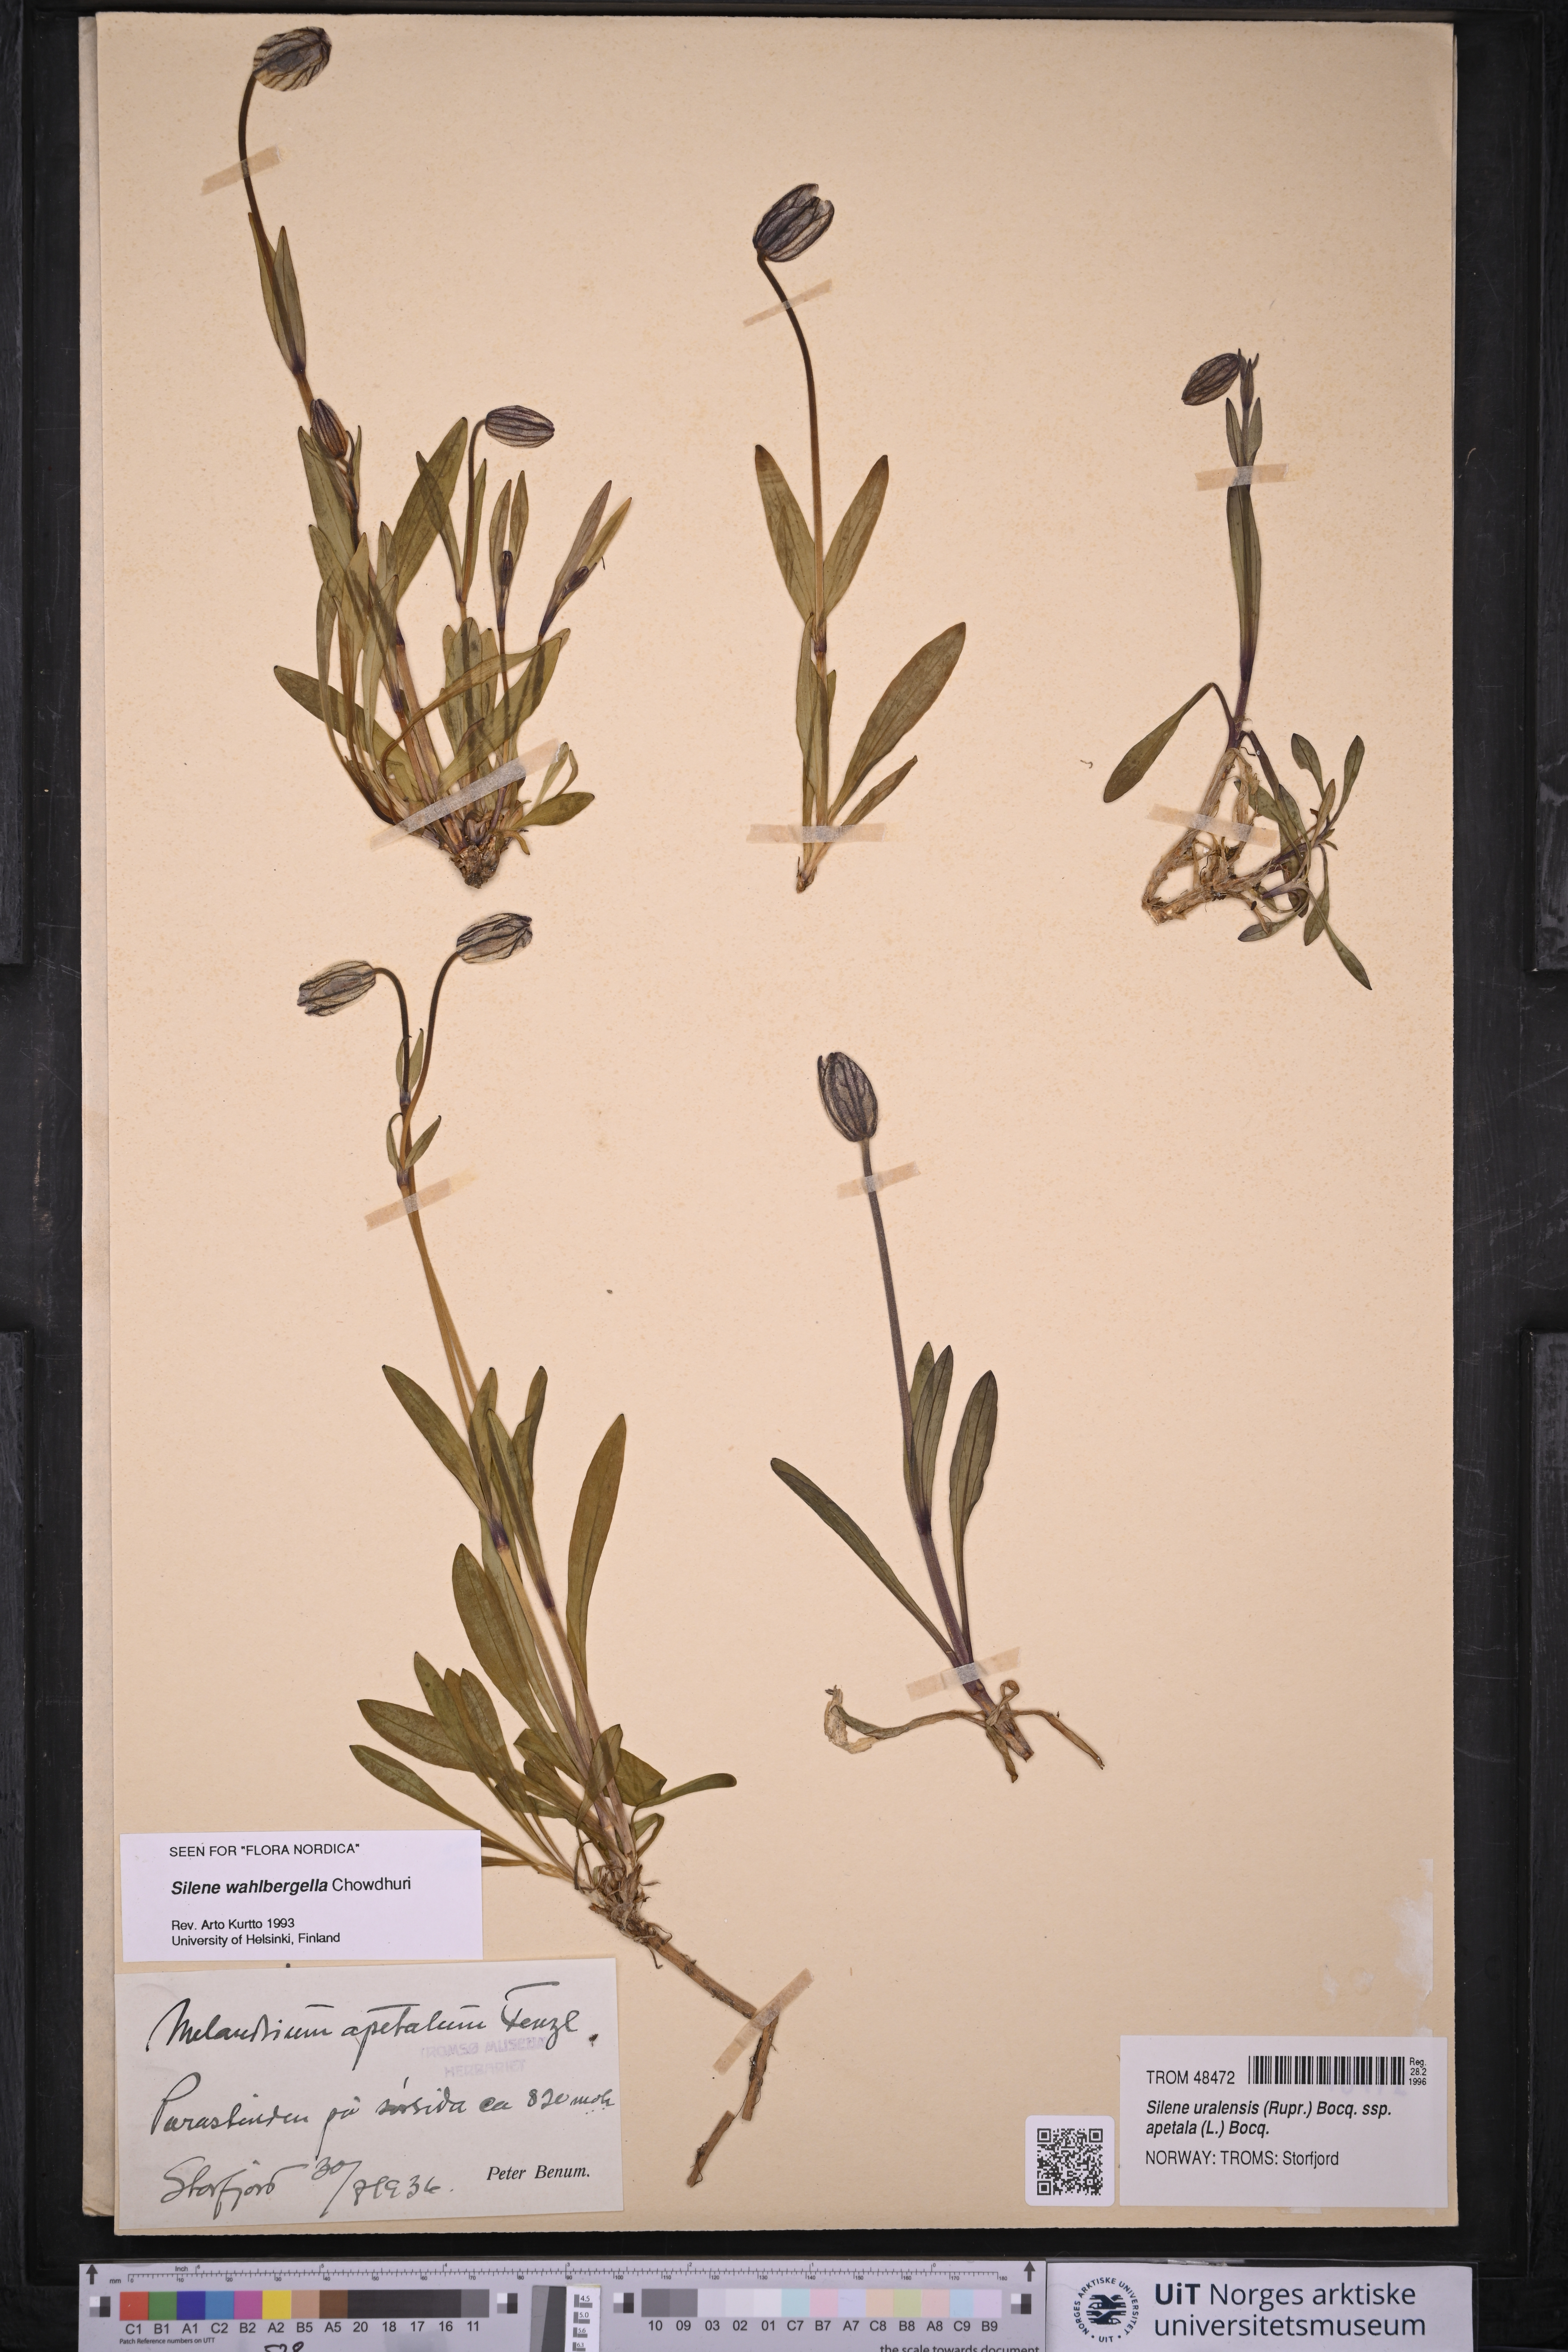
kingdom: Plantae
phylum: Tracheophyta
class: Magnoliopsida
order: Caryophyllales
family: Caryophyllaceae
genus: Silene
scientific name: Silene wahlbergella
